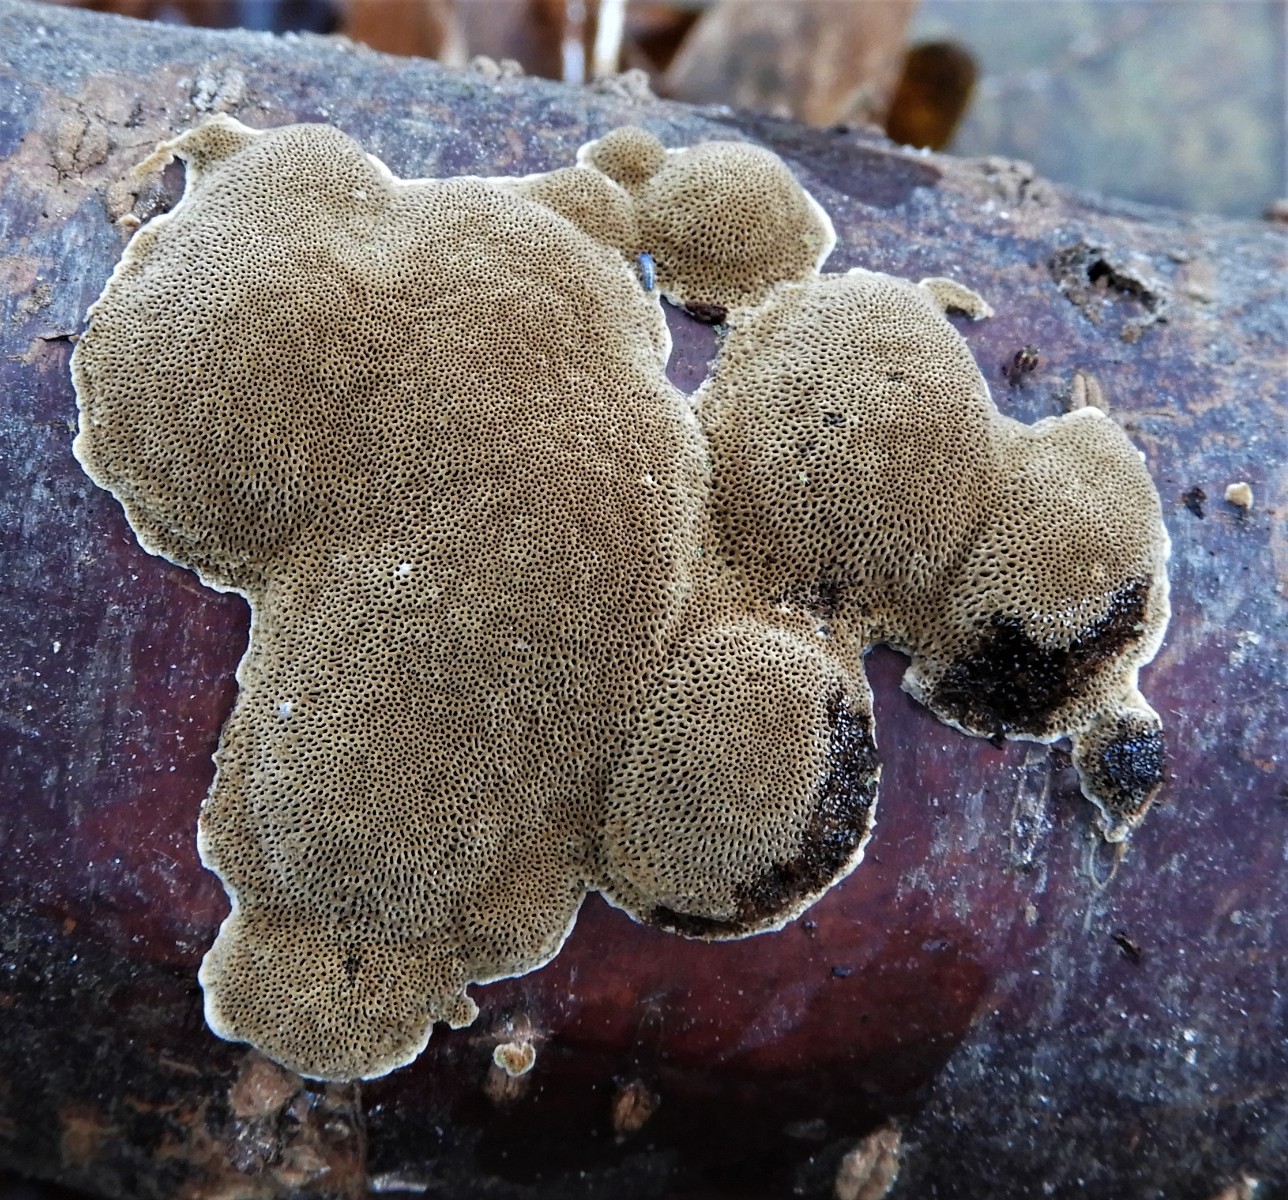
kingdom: Fungi
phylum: Basidiomycota
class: Agaricomycetes
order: Polyporales
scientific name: Polyporales
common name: poresvampordenen
